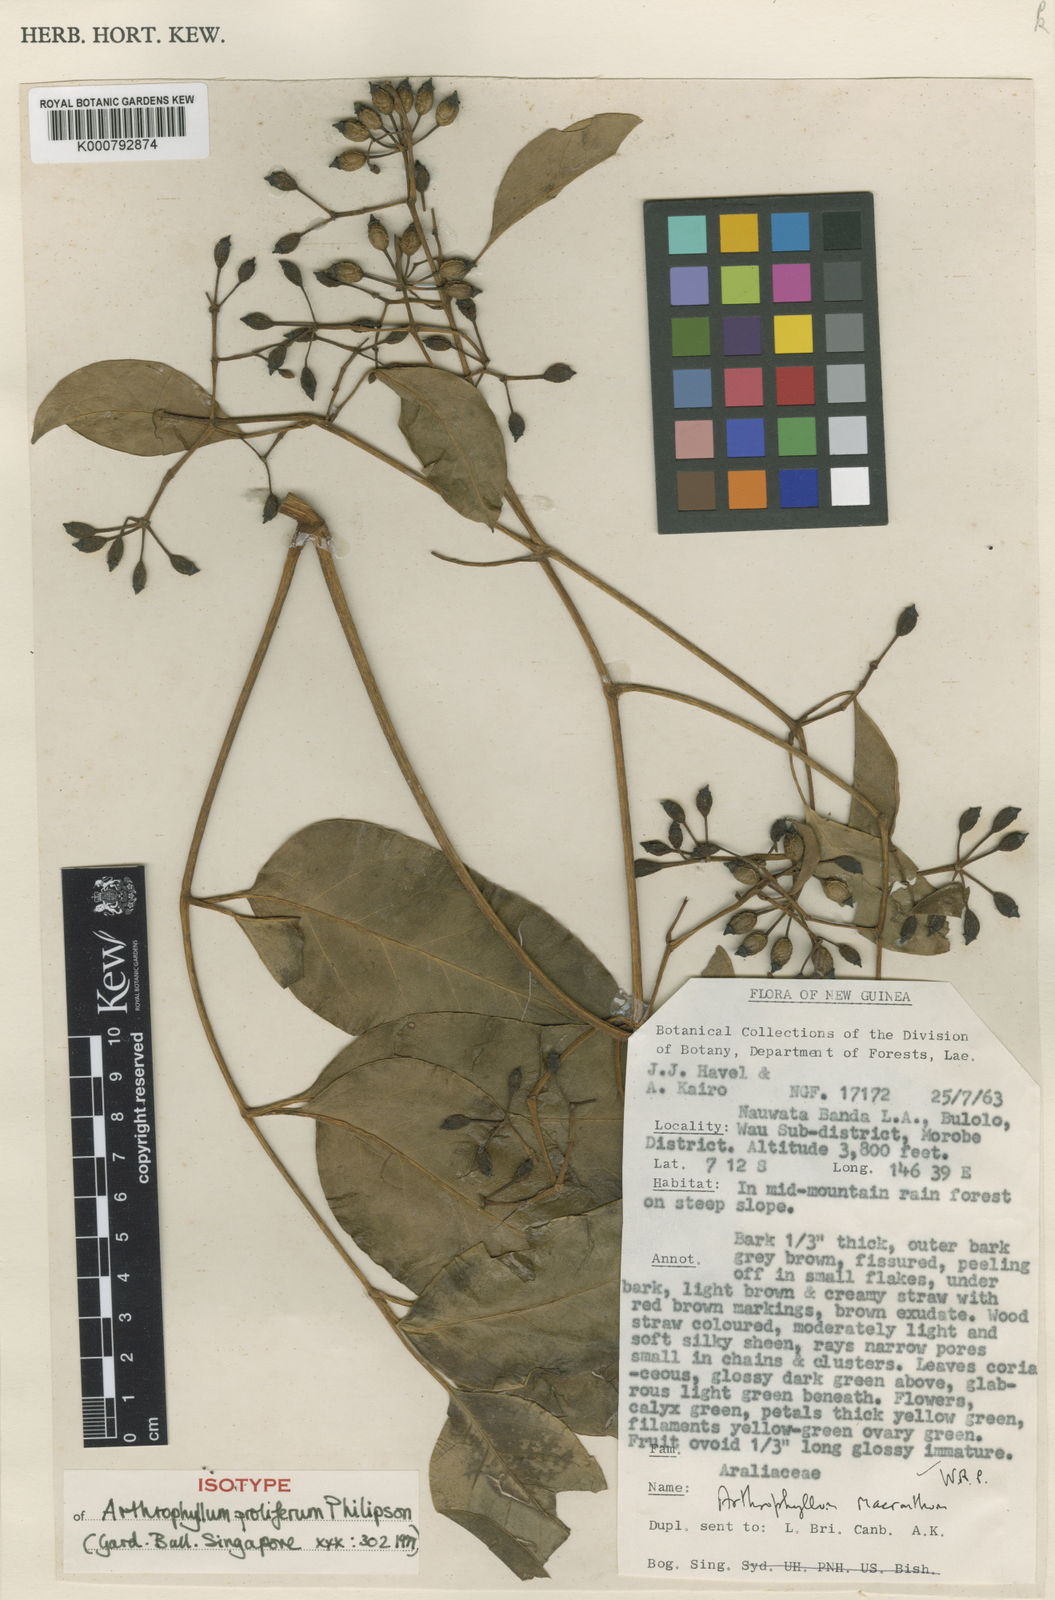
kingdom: Plantae
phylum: Tracheophyta
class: Magnoliopsida
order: Apiales
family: Araliaceae
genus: Polyscias
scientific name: Polyscias prolifera
